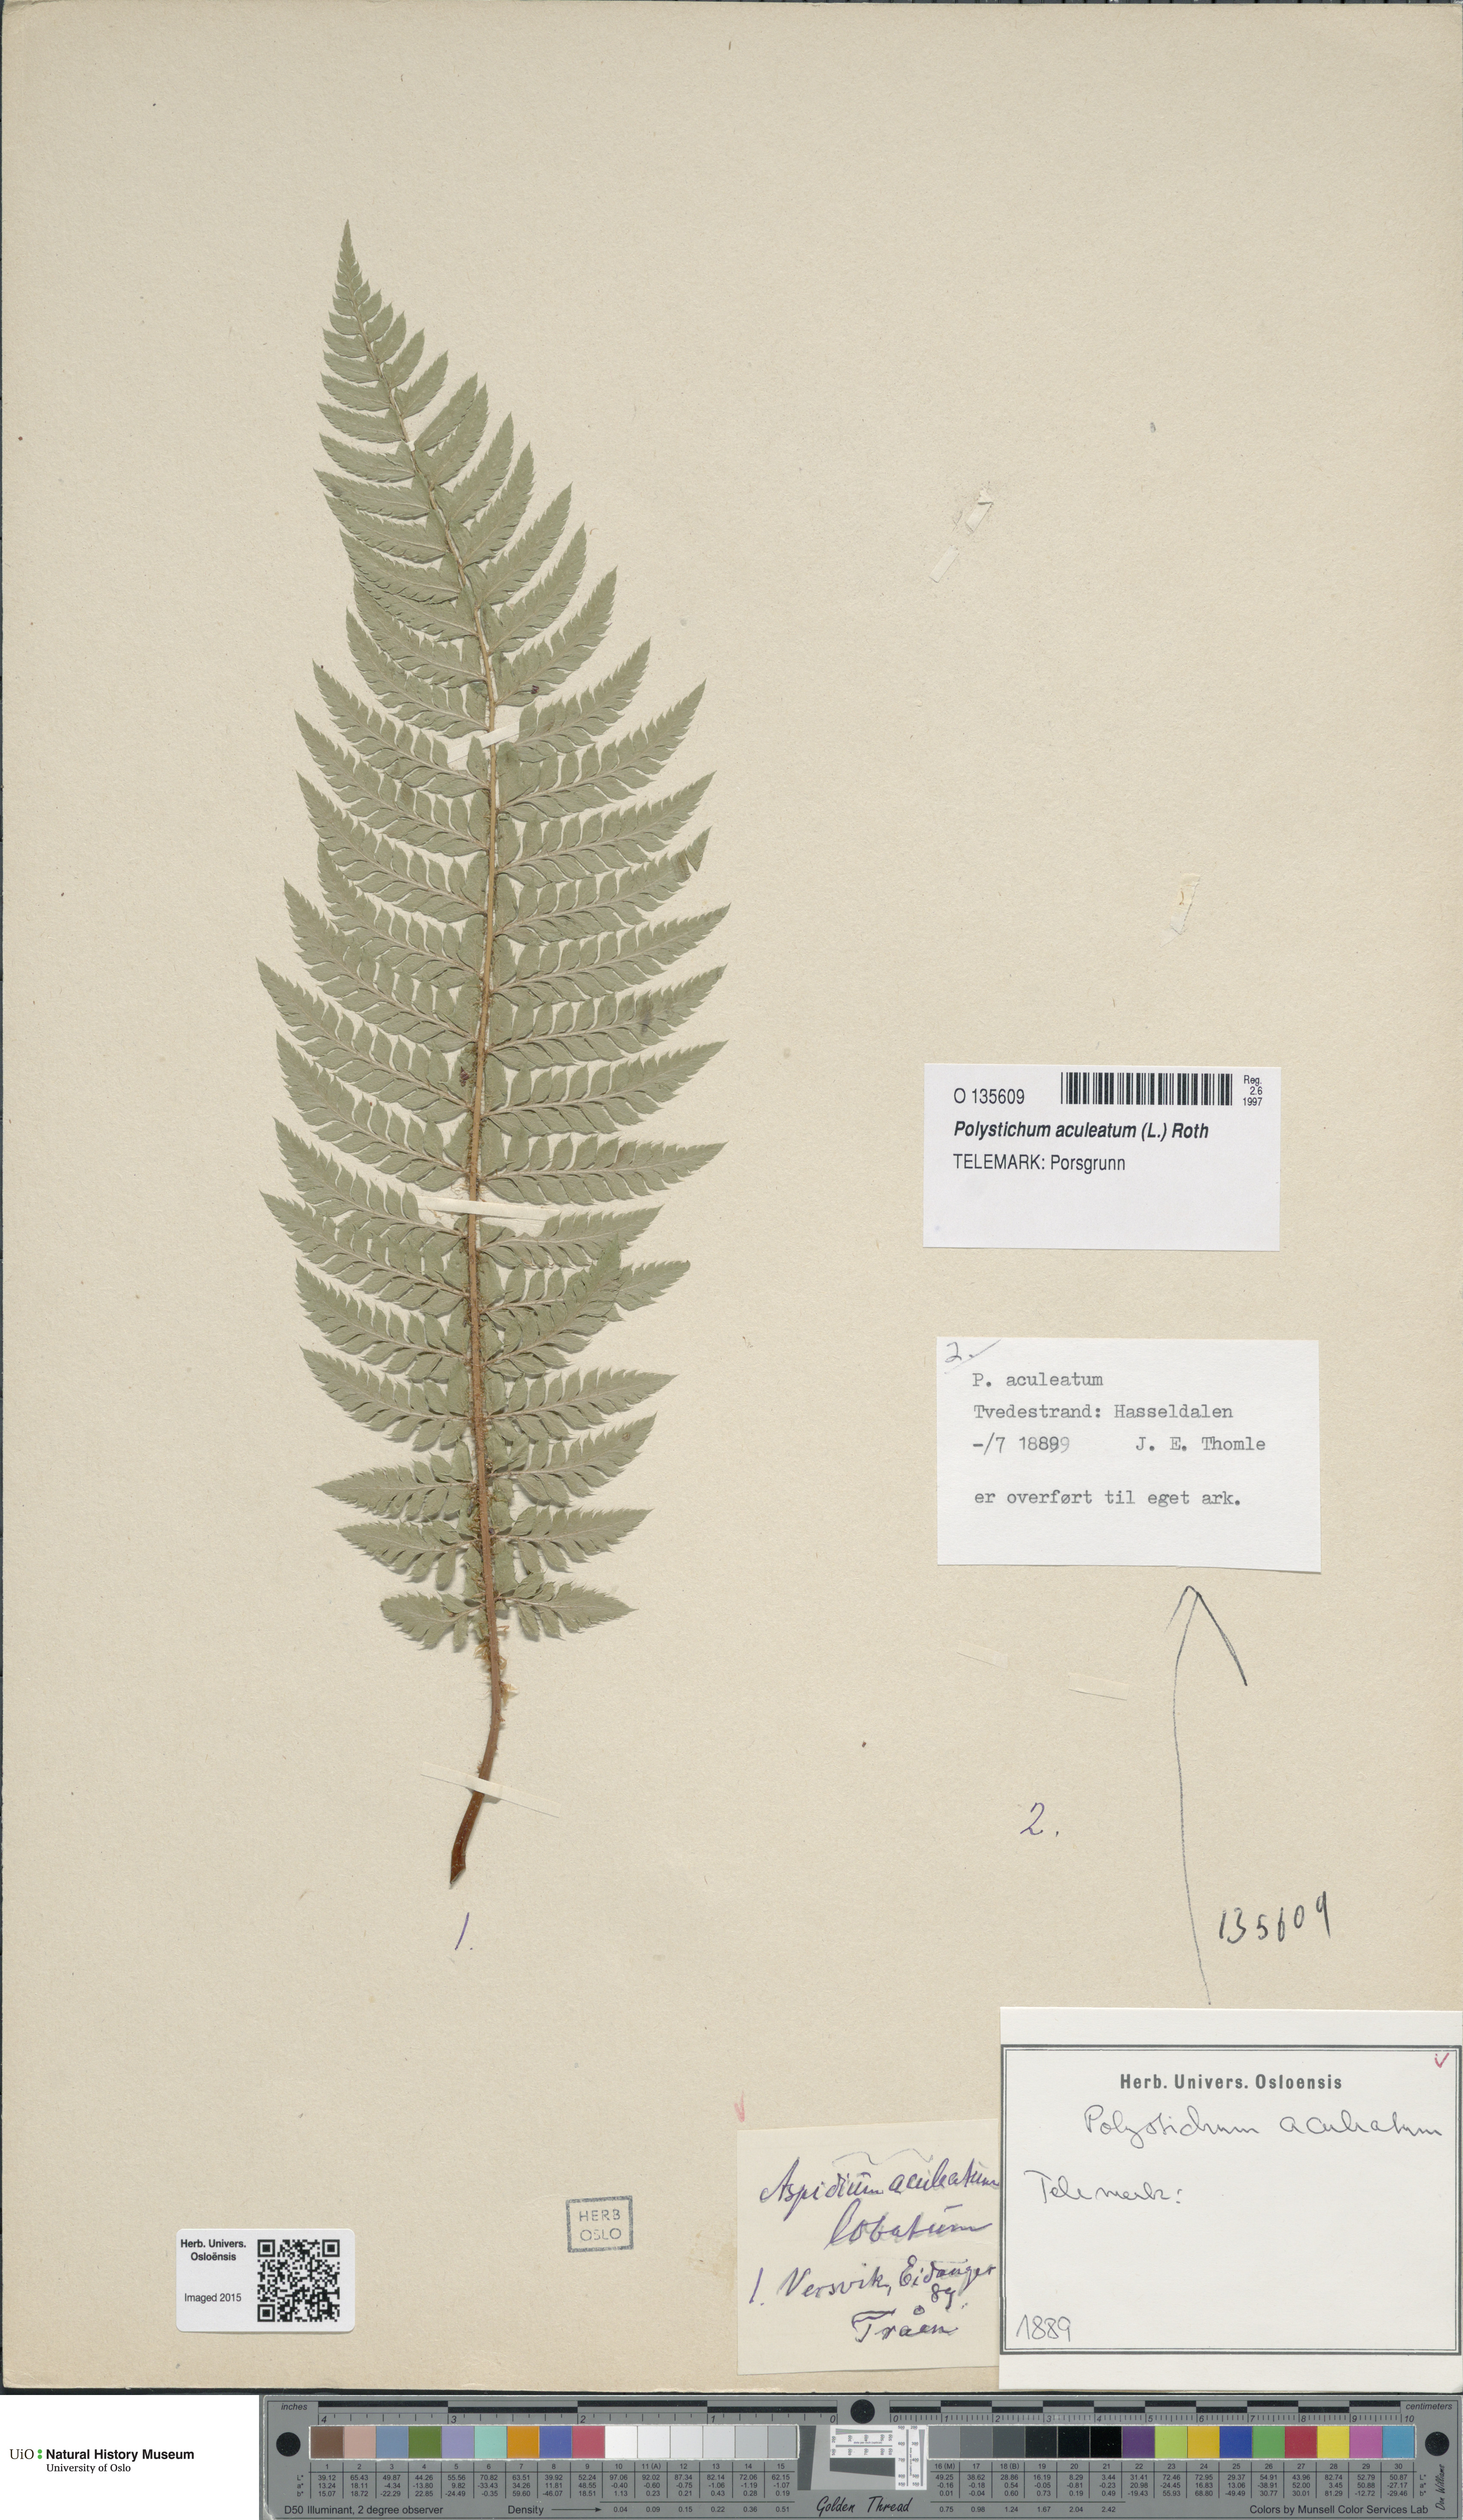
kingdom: Plantae
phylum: Tracheophyta
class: Polypodiopsida
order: Polypodiales
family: Dryopteridaceae
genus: Polystichum
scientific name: Polystichum aculeatum
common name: Hard shield-fern
